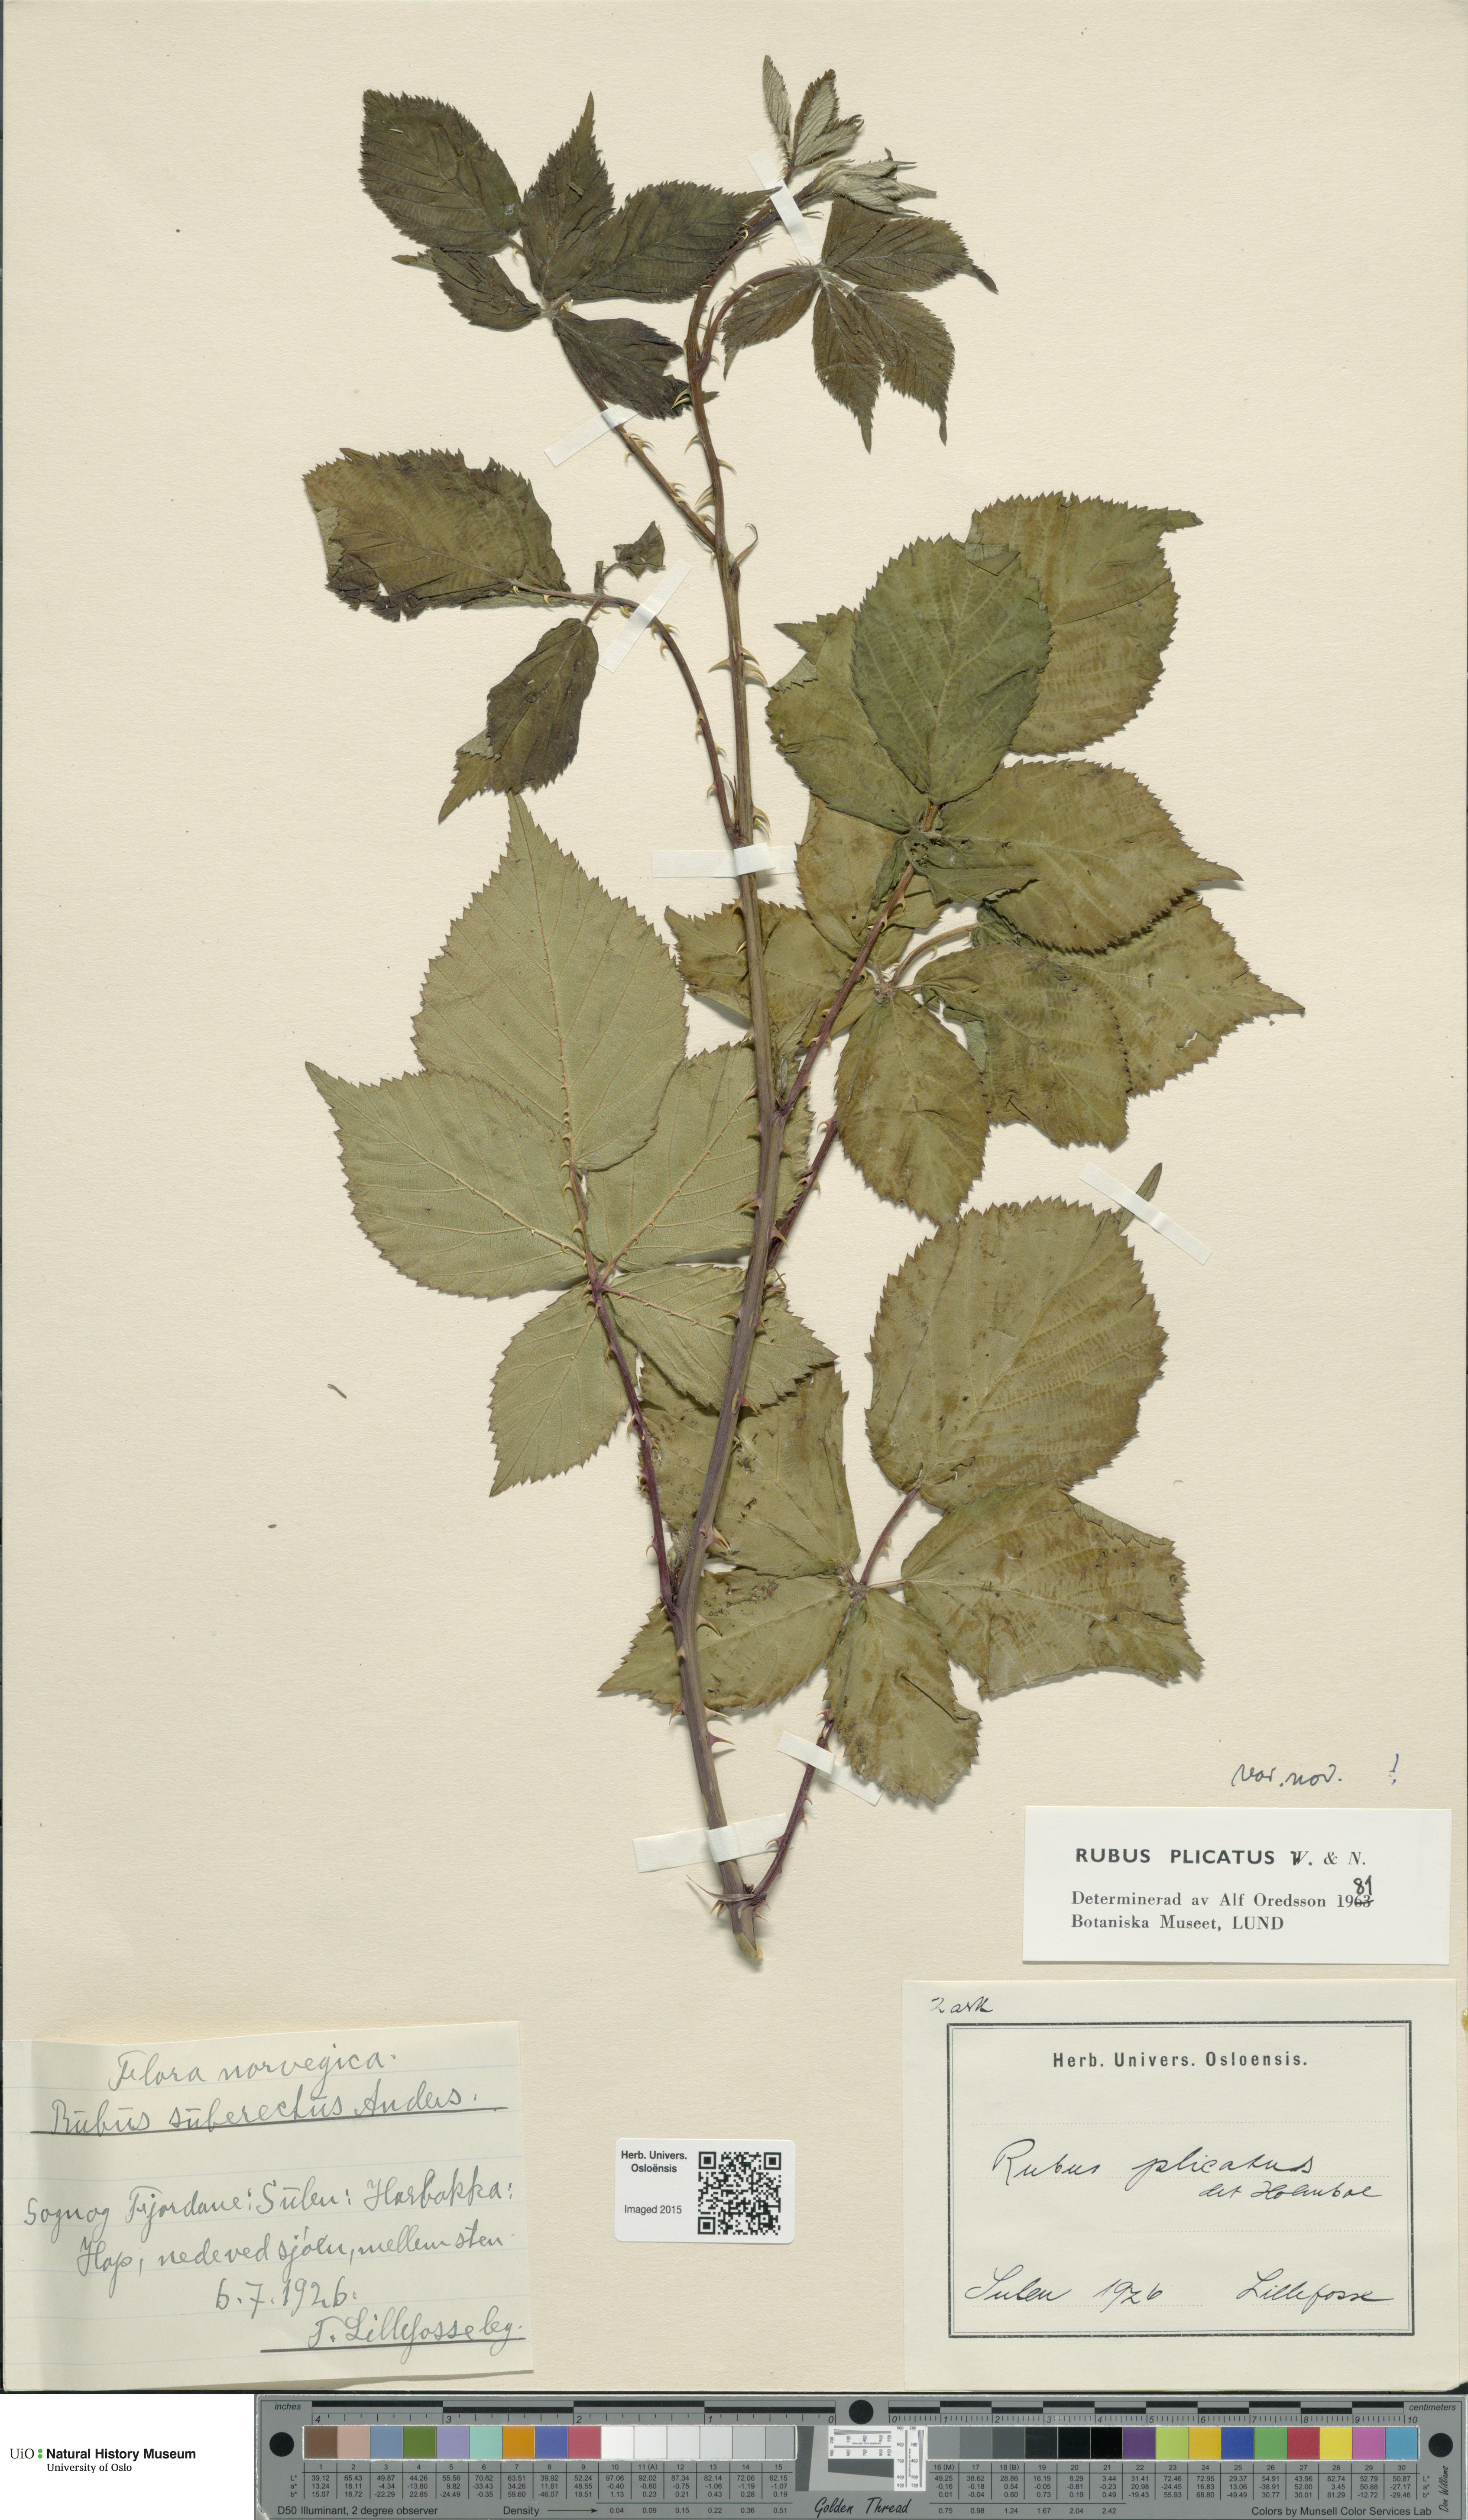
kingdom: Plantae
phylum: Tracheophyta
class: Magnoliopsida
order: Rosales
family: Rosaceae
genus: Rubus
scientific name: Rubus fruticosus
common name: Blackberry, bramble
